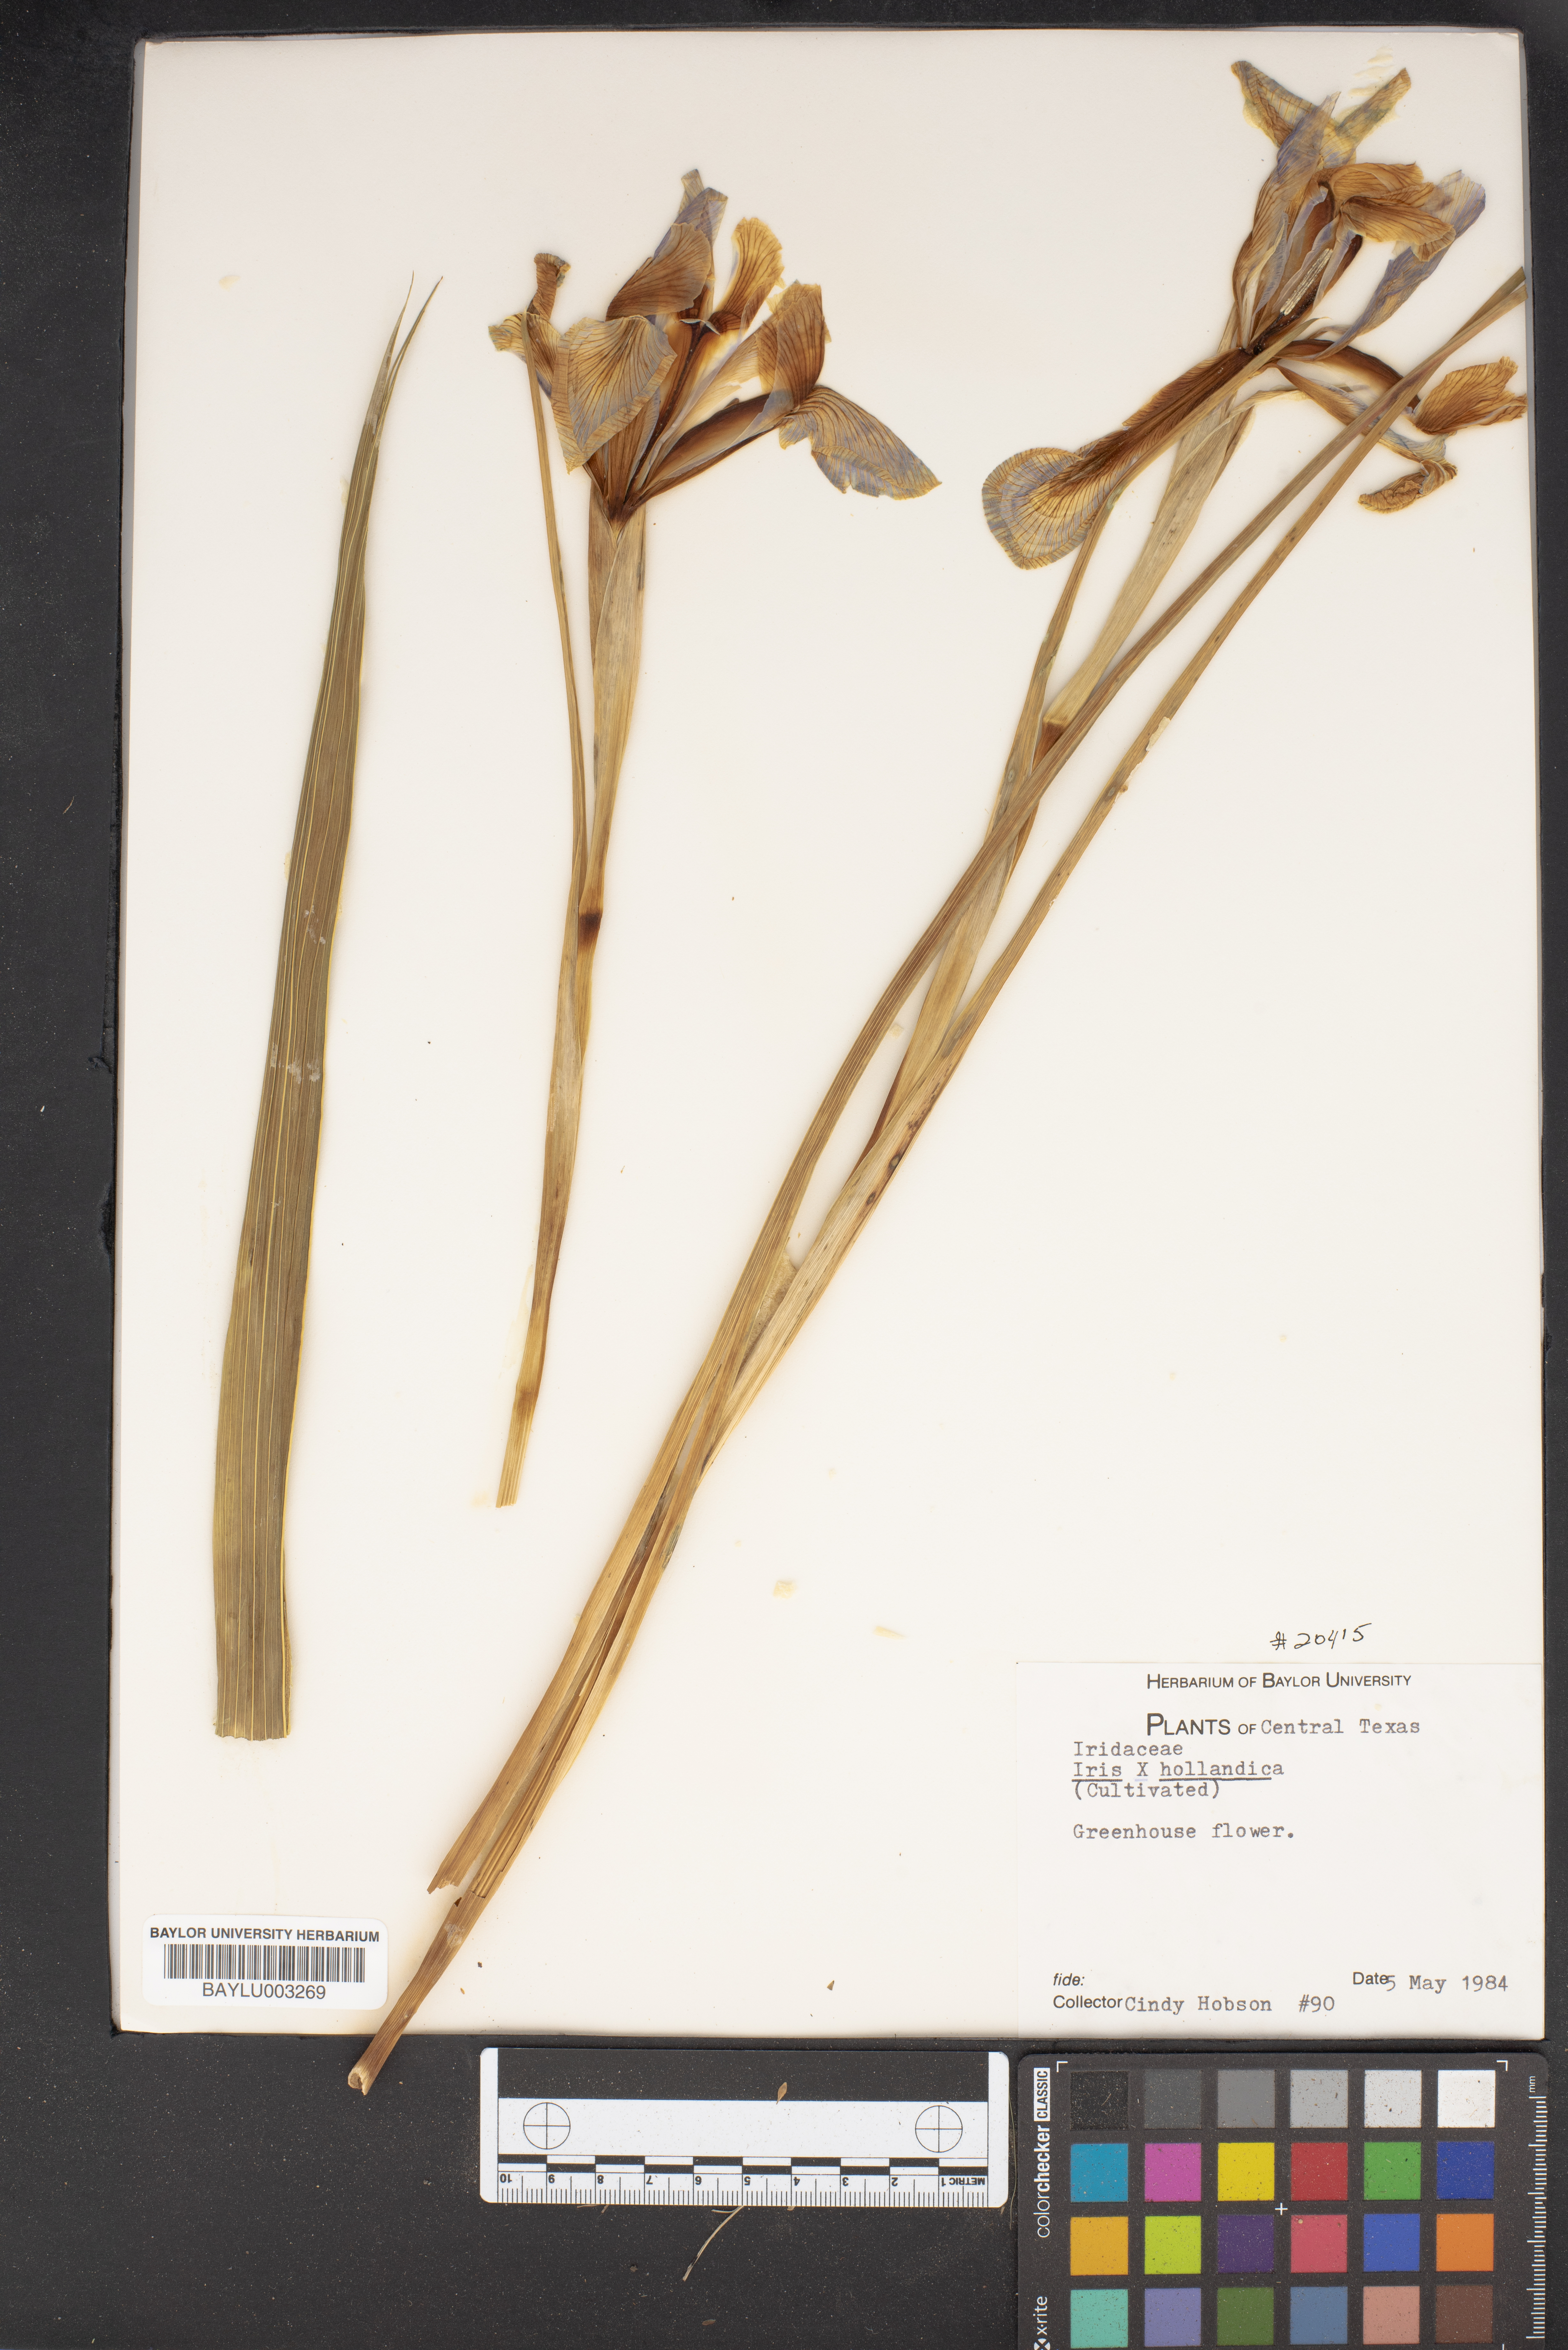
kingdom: Plantae
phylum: Tracheophyta
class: Liliopsida
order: Asparagales
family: Iridaceae
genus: Iris
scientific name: Iris hollandica
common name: Dutch iris
